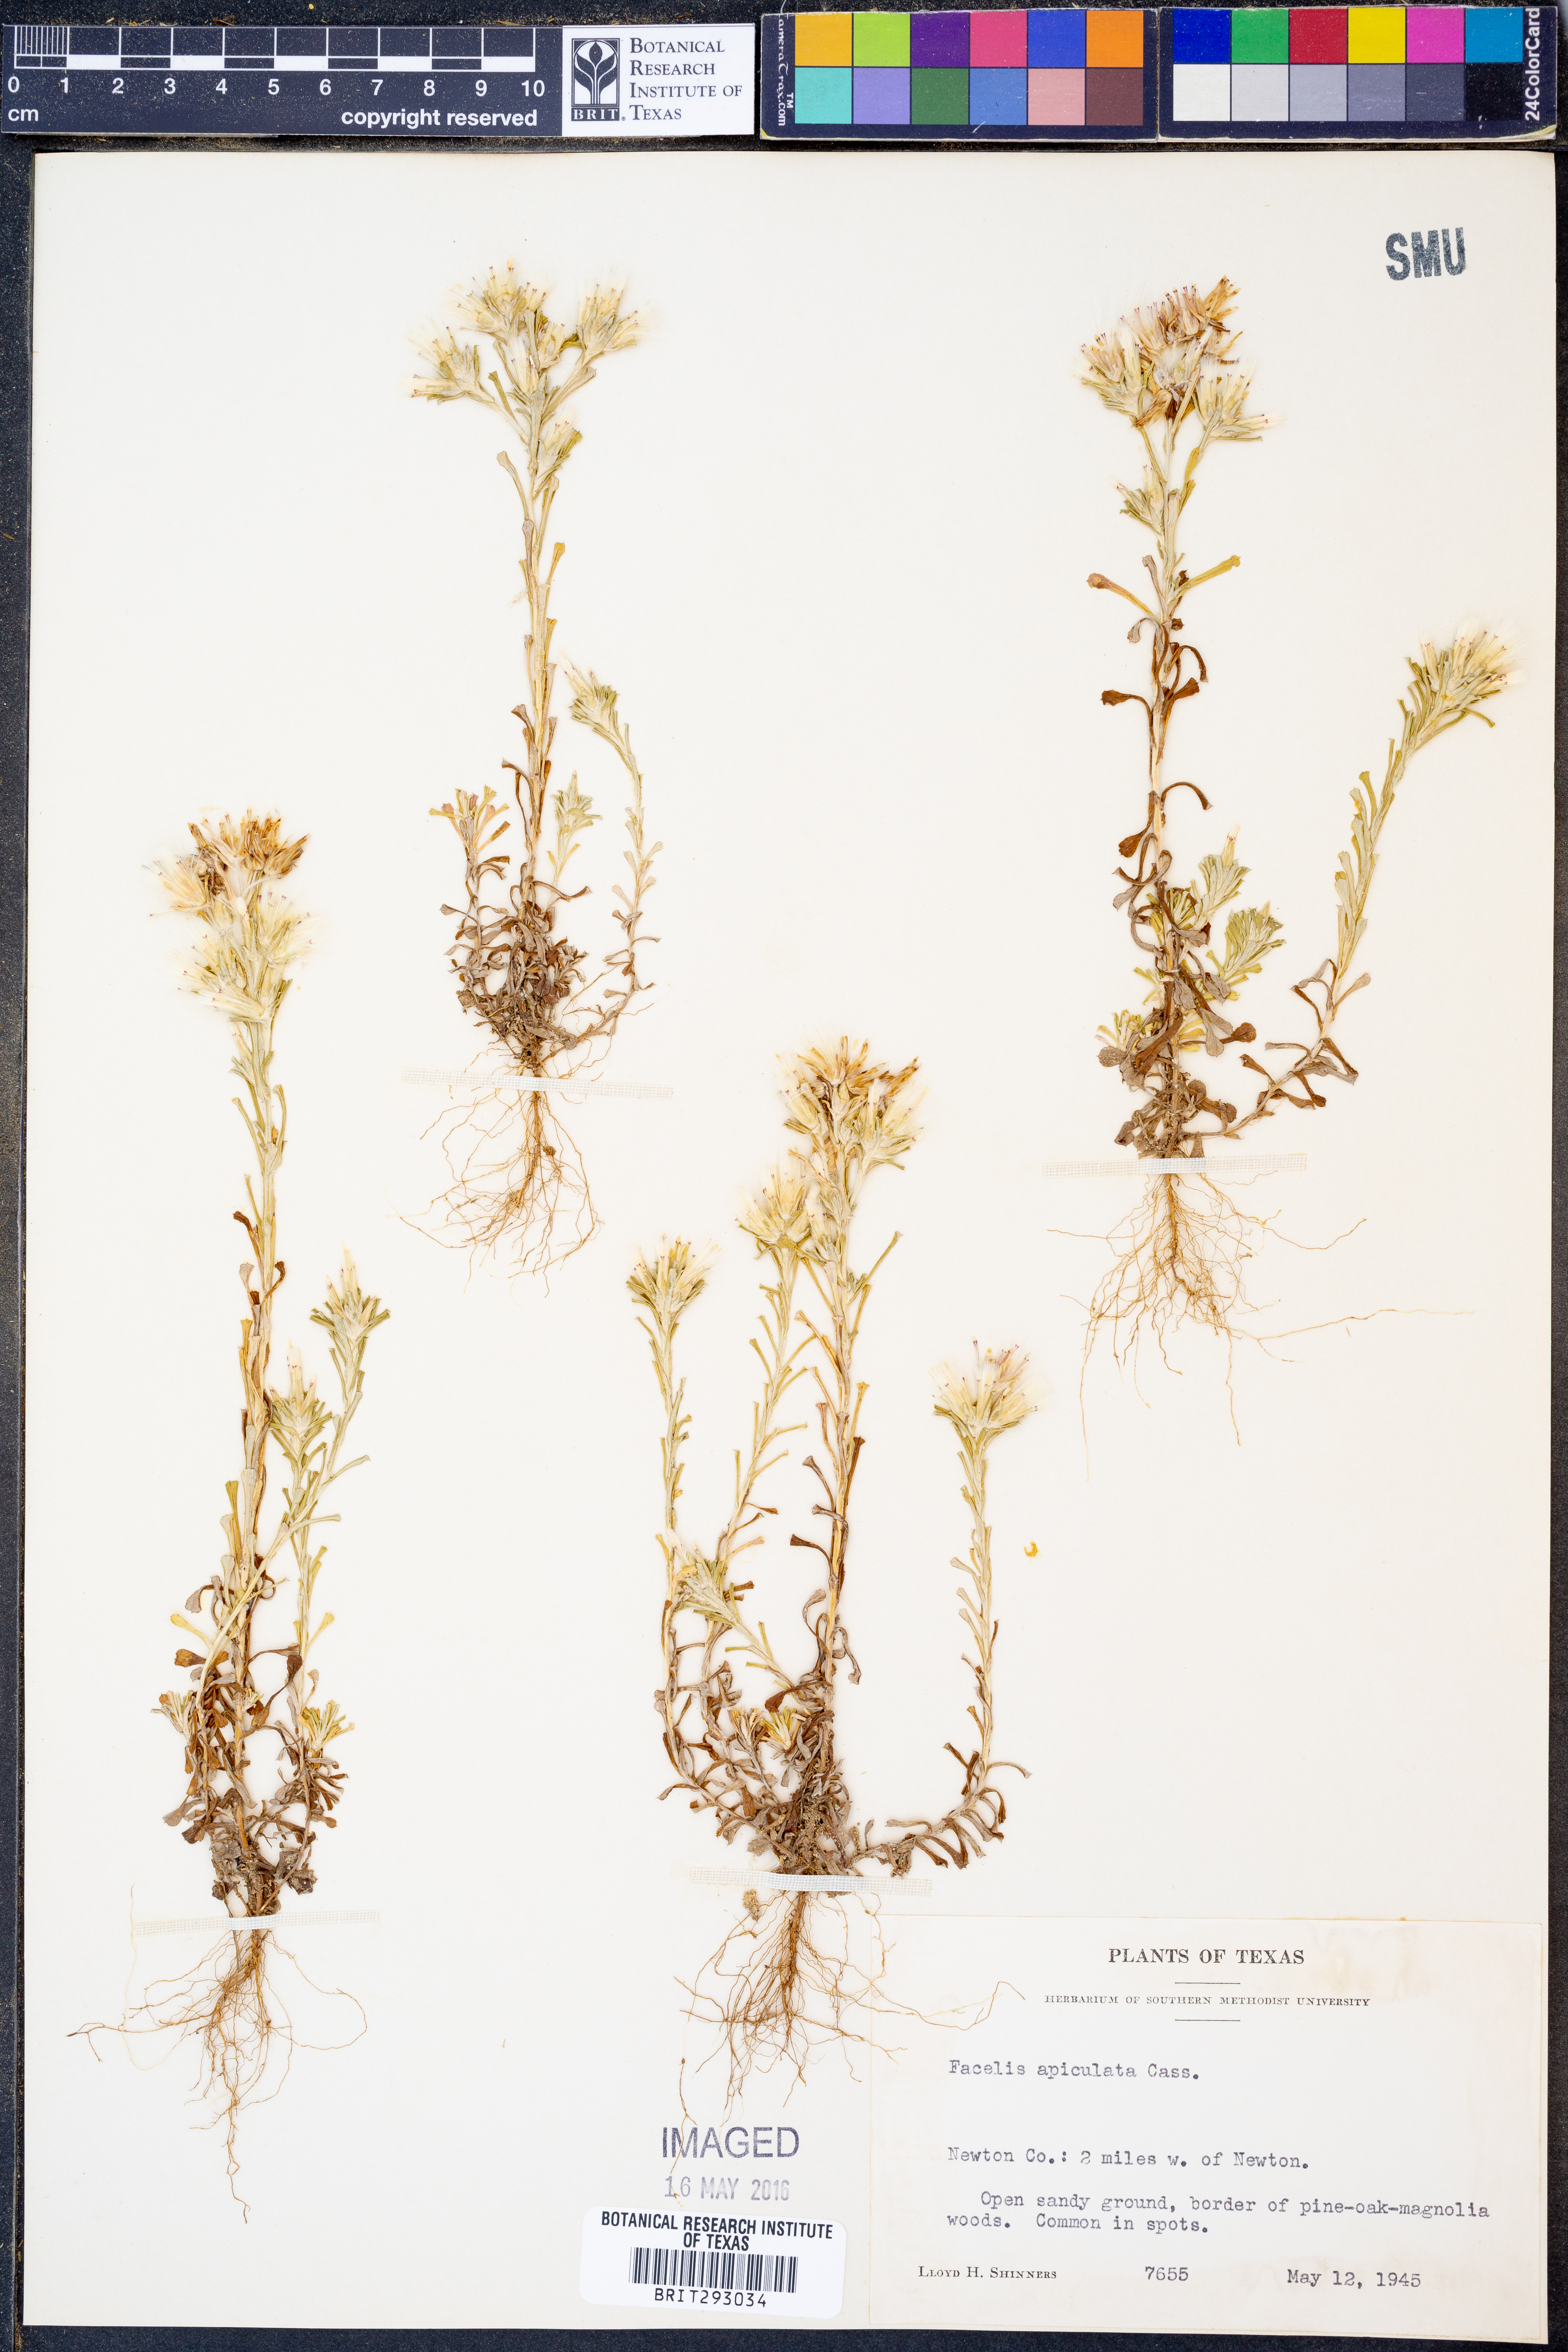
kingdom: Plantae
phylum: Tracheophyta
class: Magnoliopsida
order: Asterales
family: Asteraceae
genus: Facelis
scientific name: Facelis retusa
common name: Annual trampweed
